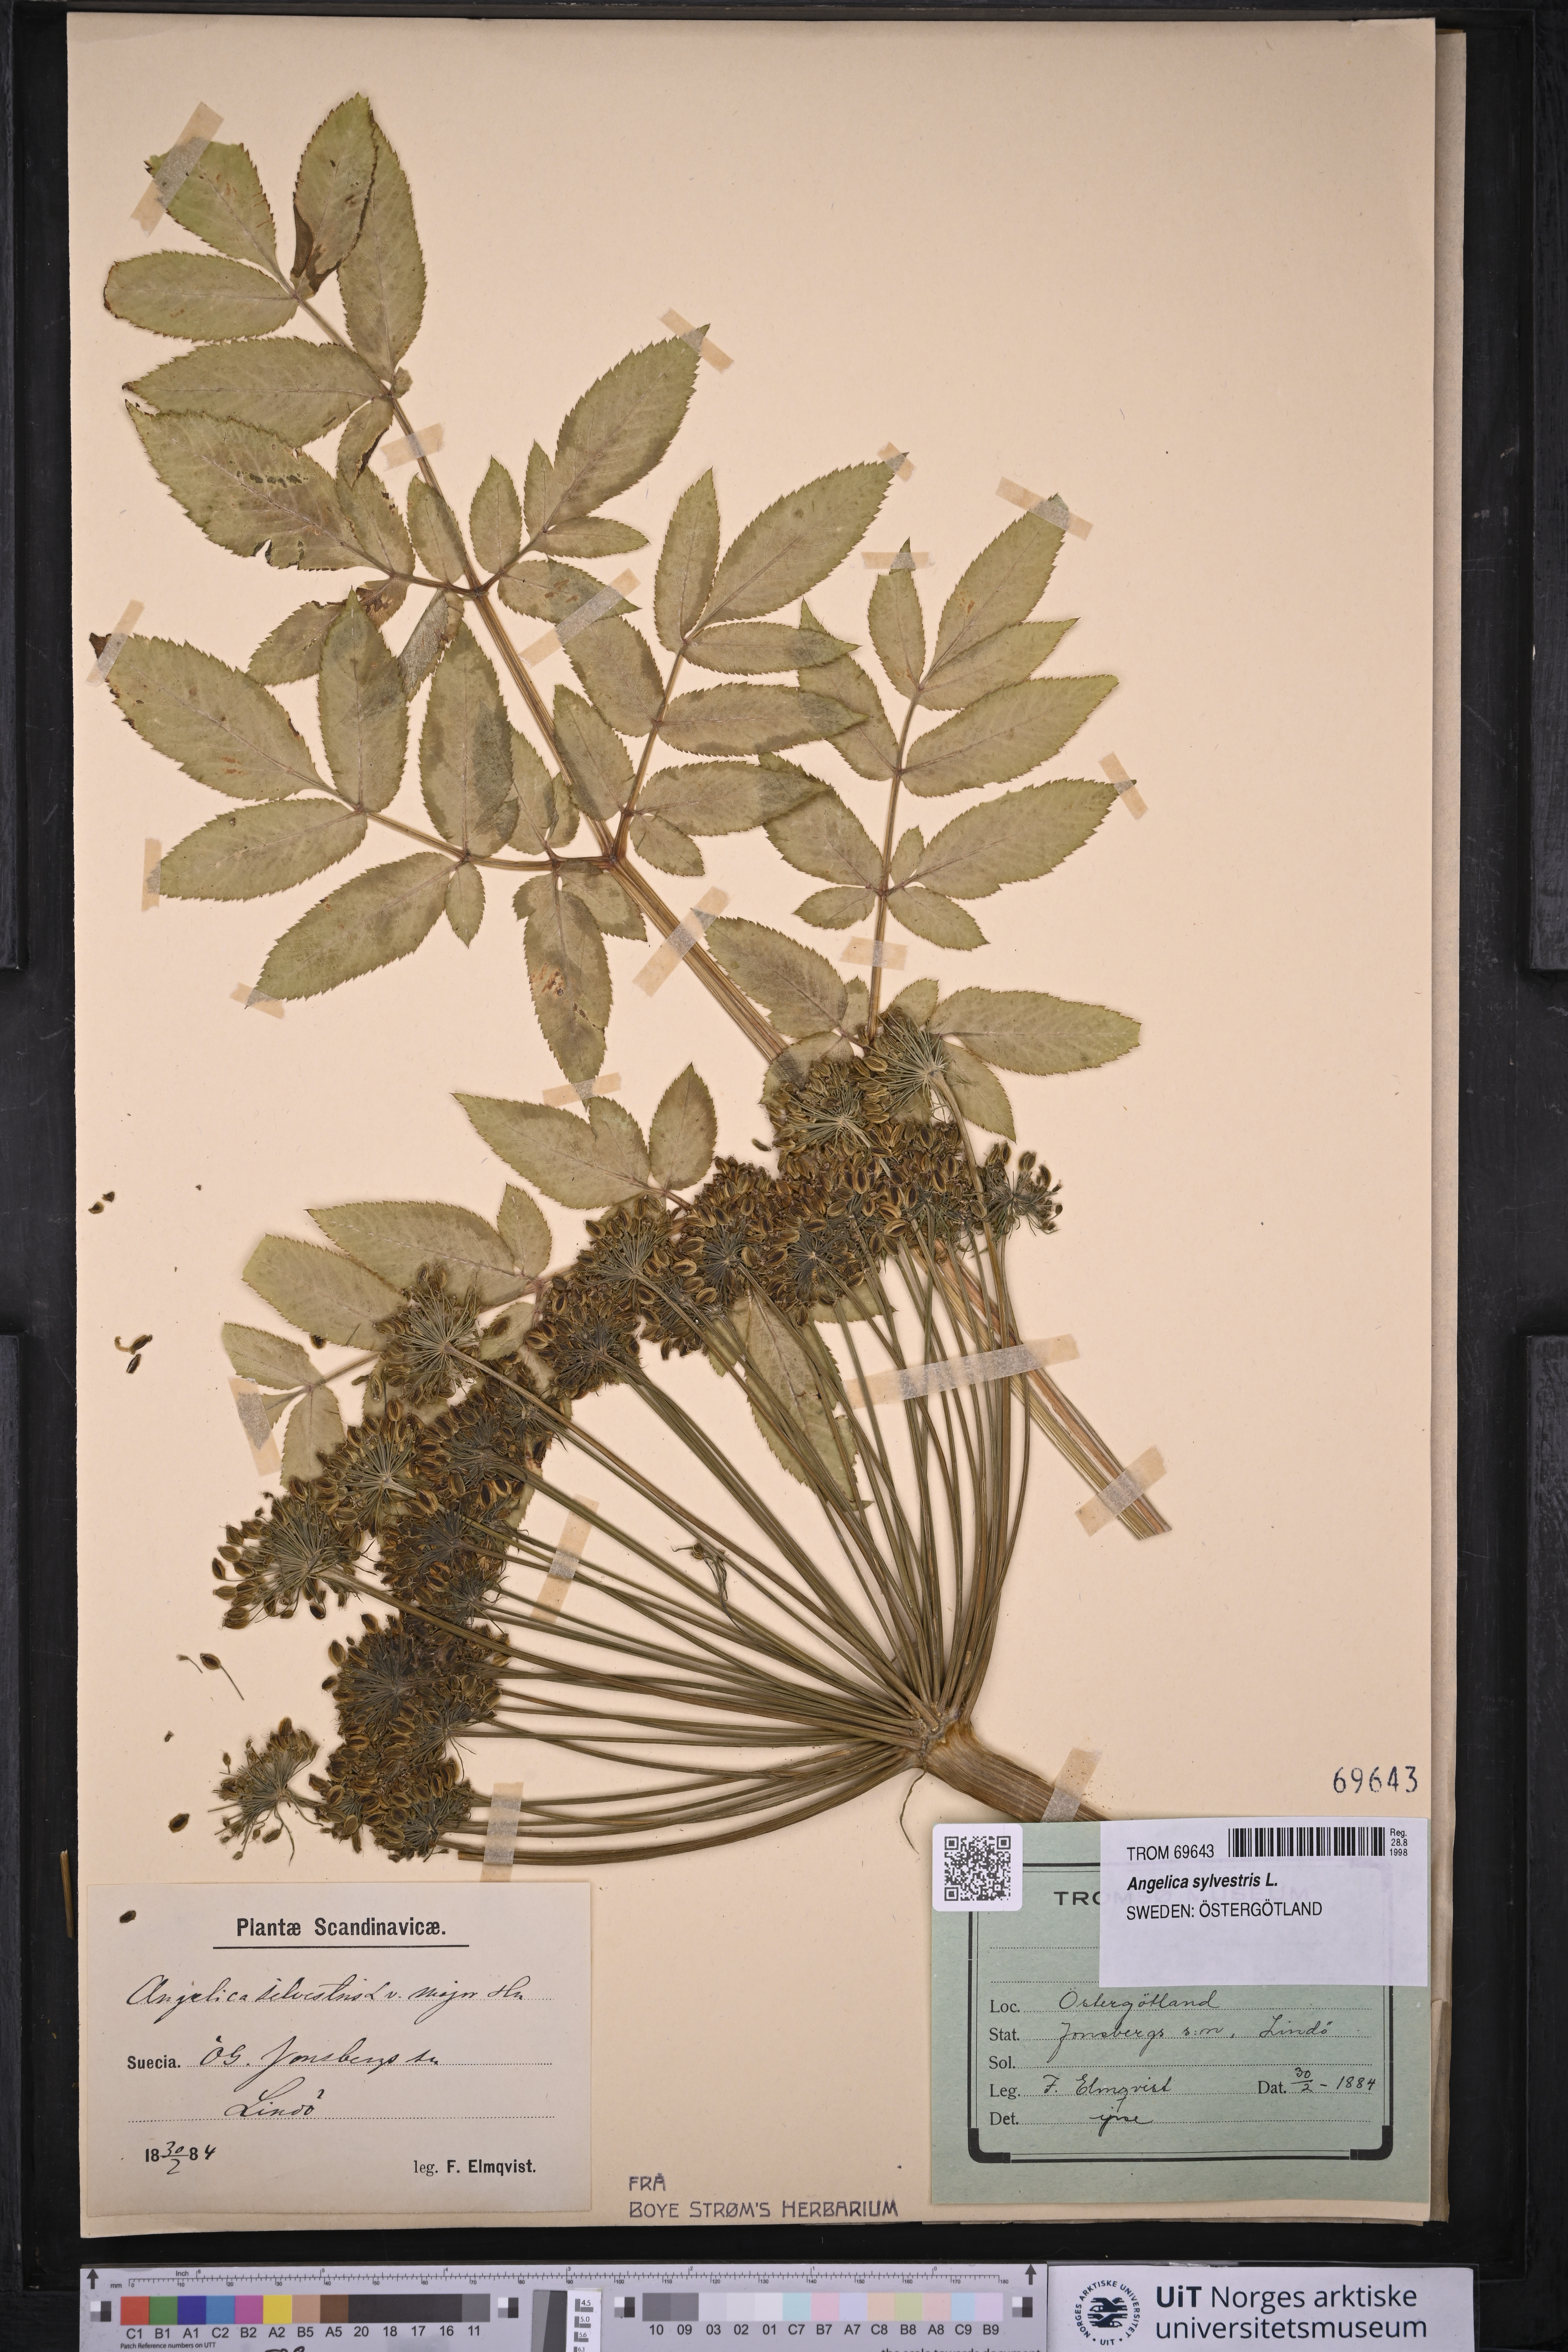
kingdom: Plantae
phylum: Tracheophyta
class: Magnoliopsida
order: Apiales
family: Apiaceae
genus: Angelica
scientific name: Angelica sylvestris
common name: Wild angelica
